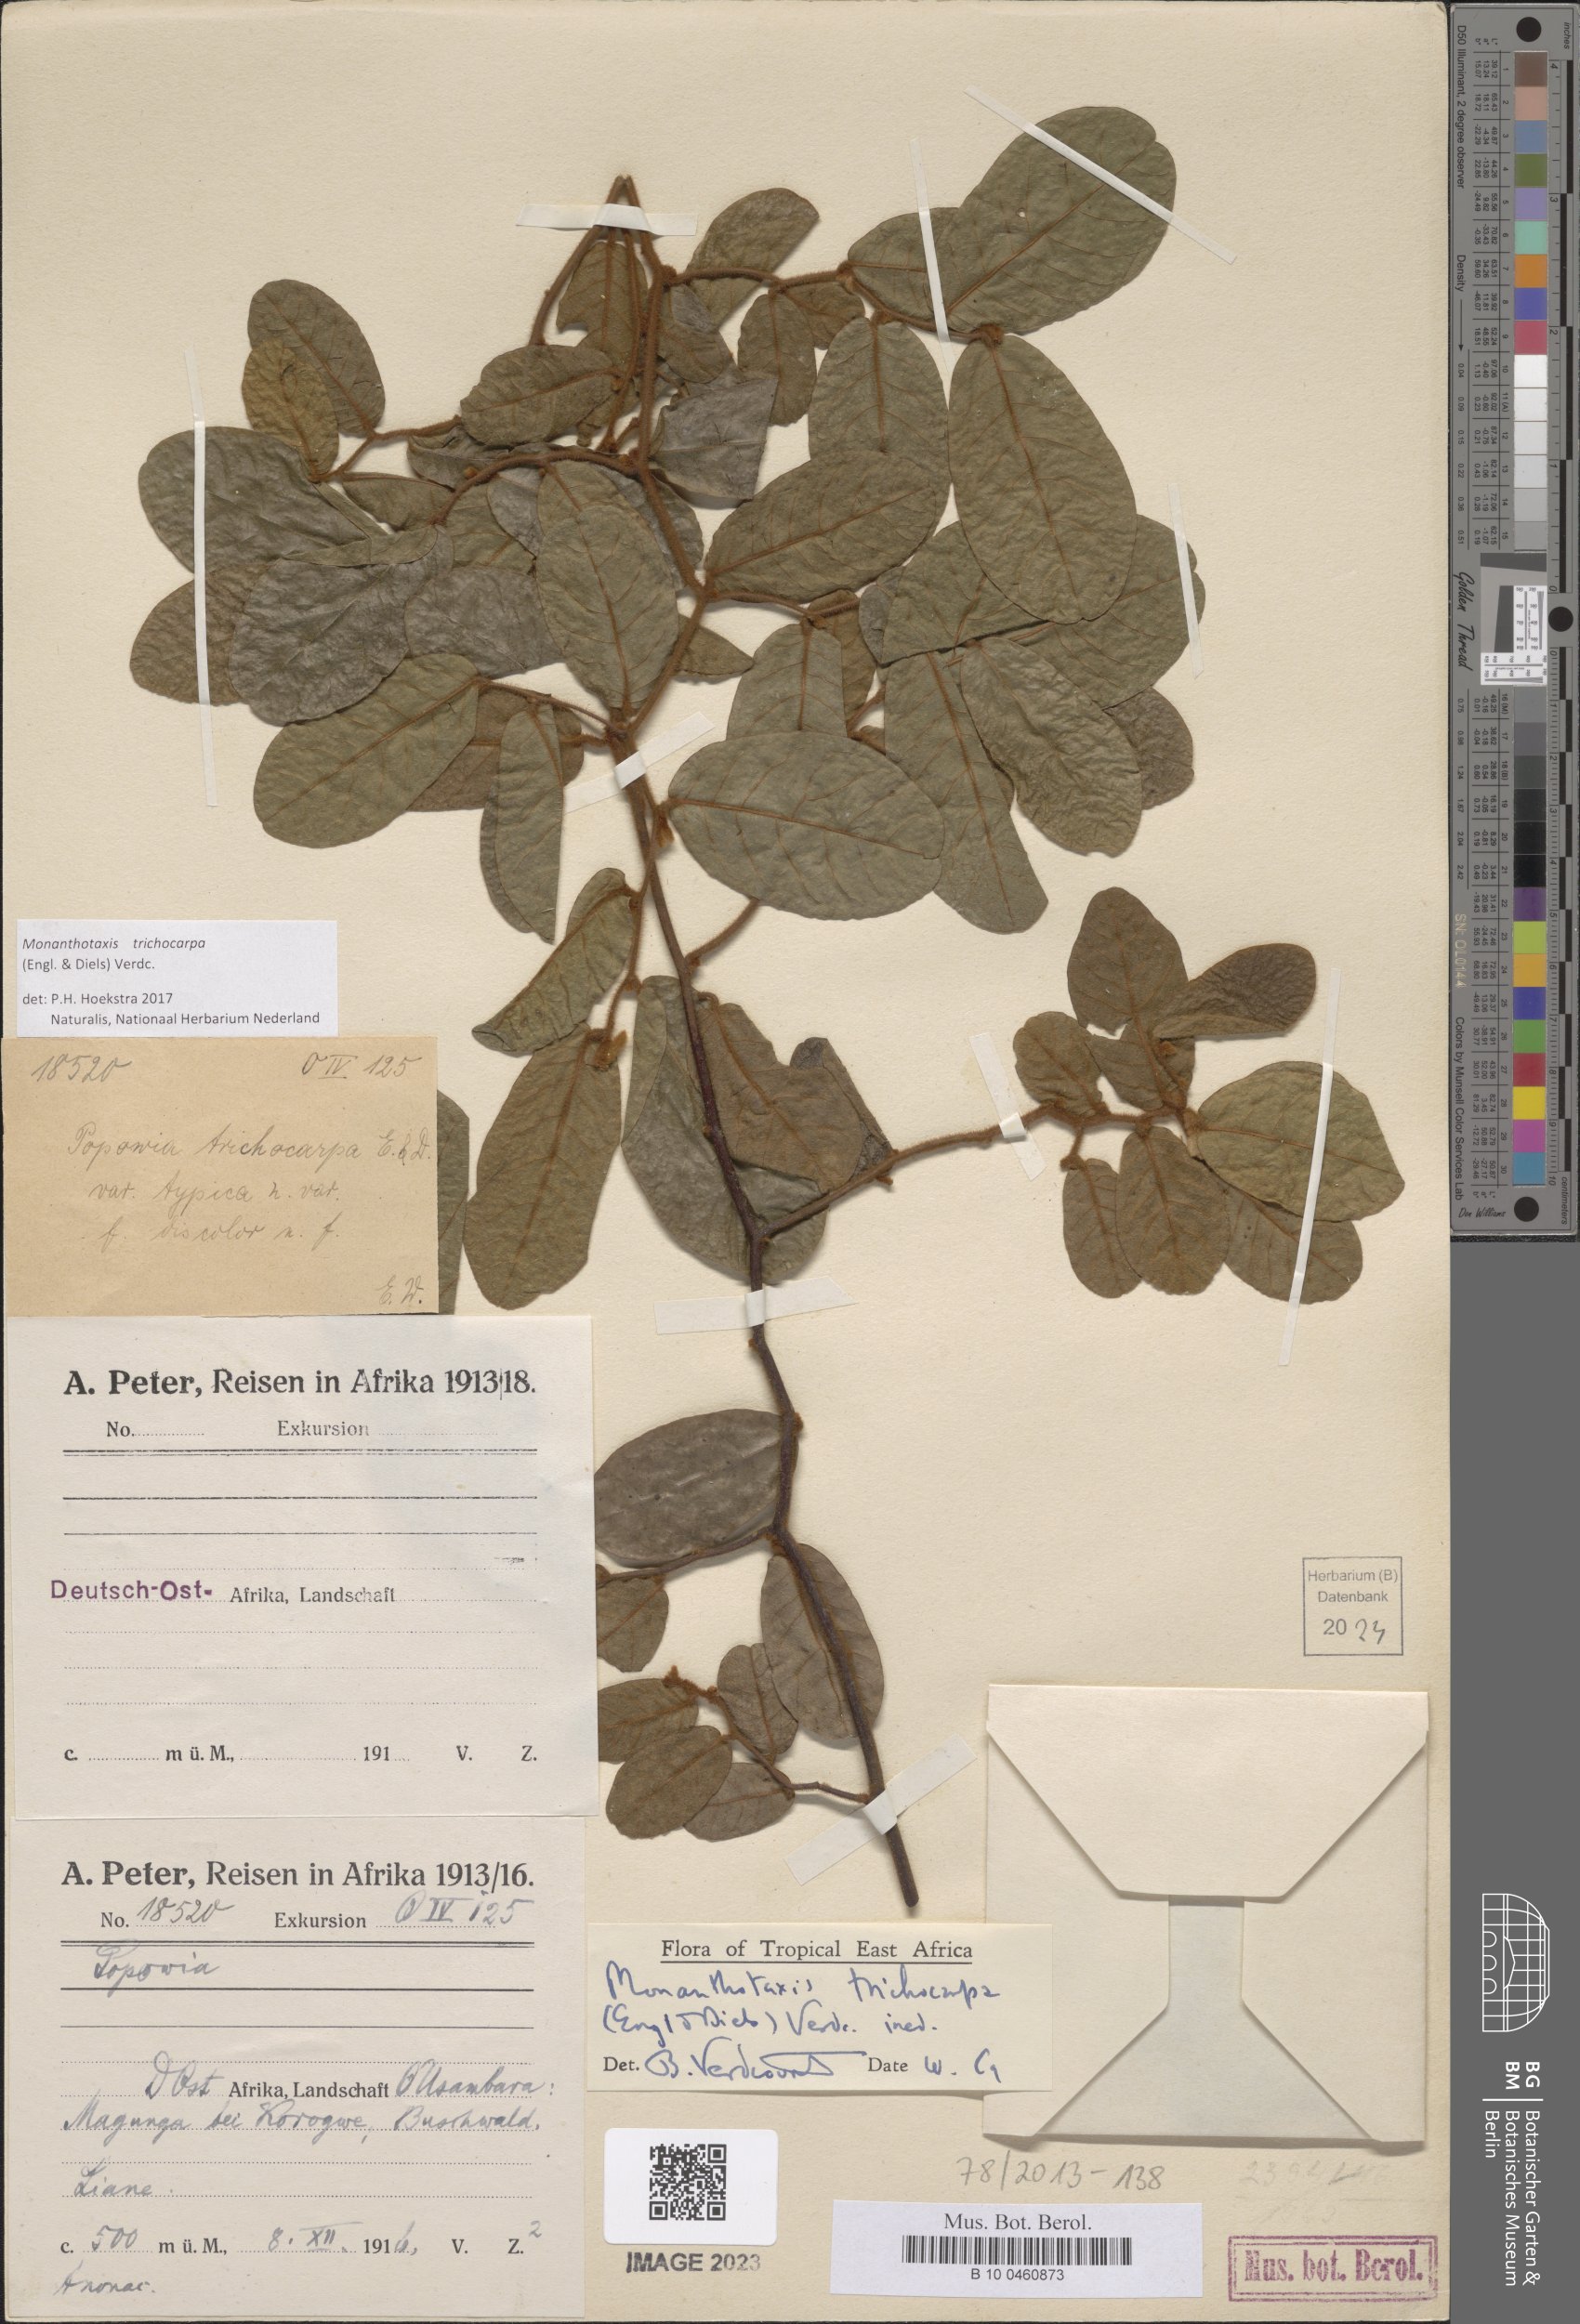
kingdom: Plantae
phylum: Tracheophyta
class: Magnoliopsida
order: Magnoliales
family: Annonaceae
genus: Monanthotaxis
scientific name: Monanthotaxis trichocarpa
